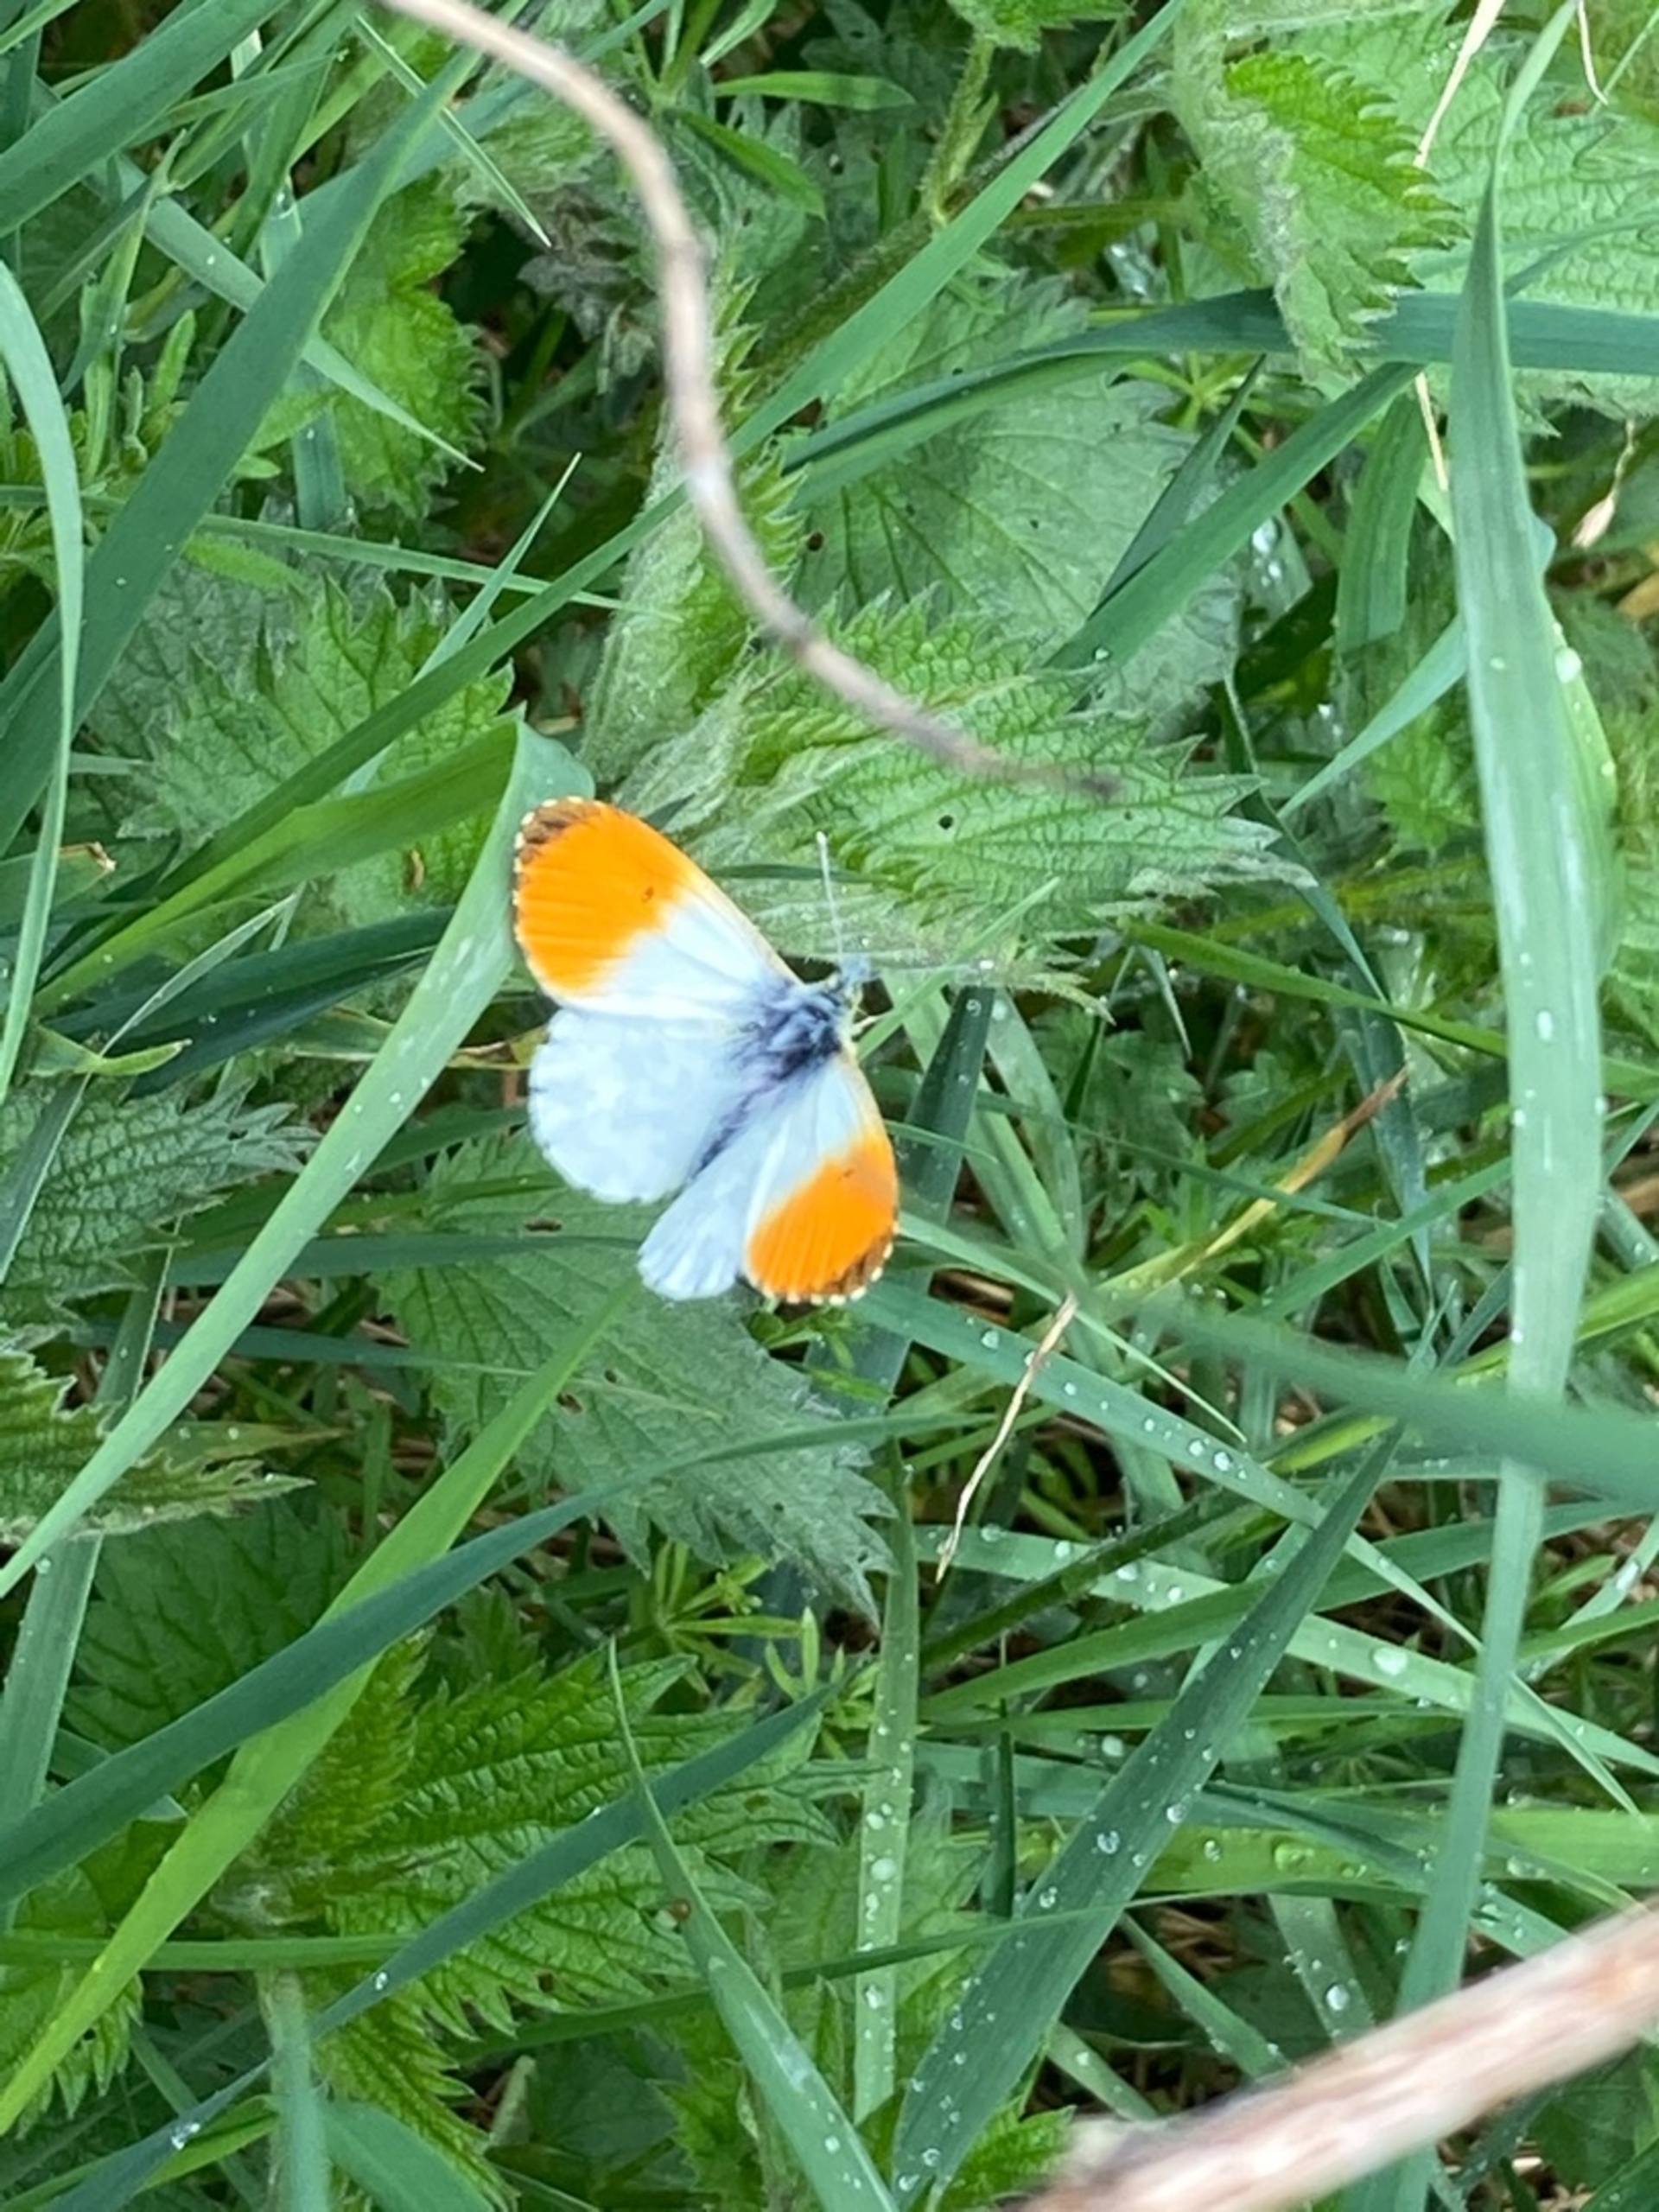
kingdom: Animalia
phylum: Arthropoda
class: Insecta
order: Lepidoptera
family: Pieridae
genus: Anthocharis
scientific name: Anthocharis cardamines
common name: Aurora
